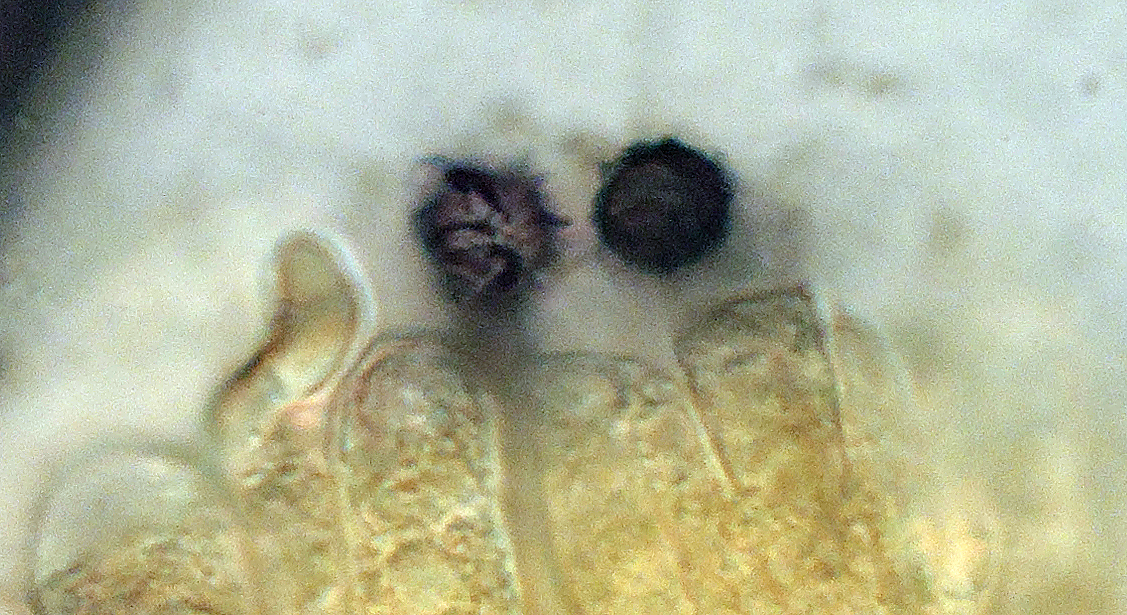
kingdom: Fungi
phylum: Basidiomycota
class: Agaricomycetes
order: Russulales
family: Russulaceae
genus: Lactarius
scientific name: Lactarius
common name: mælkehat
